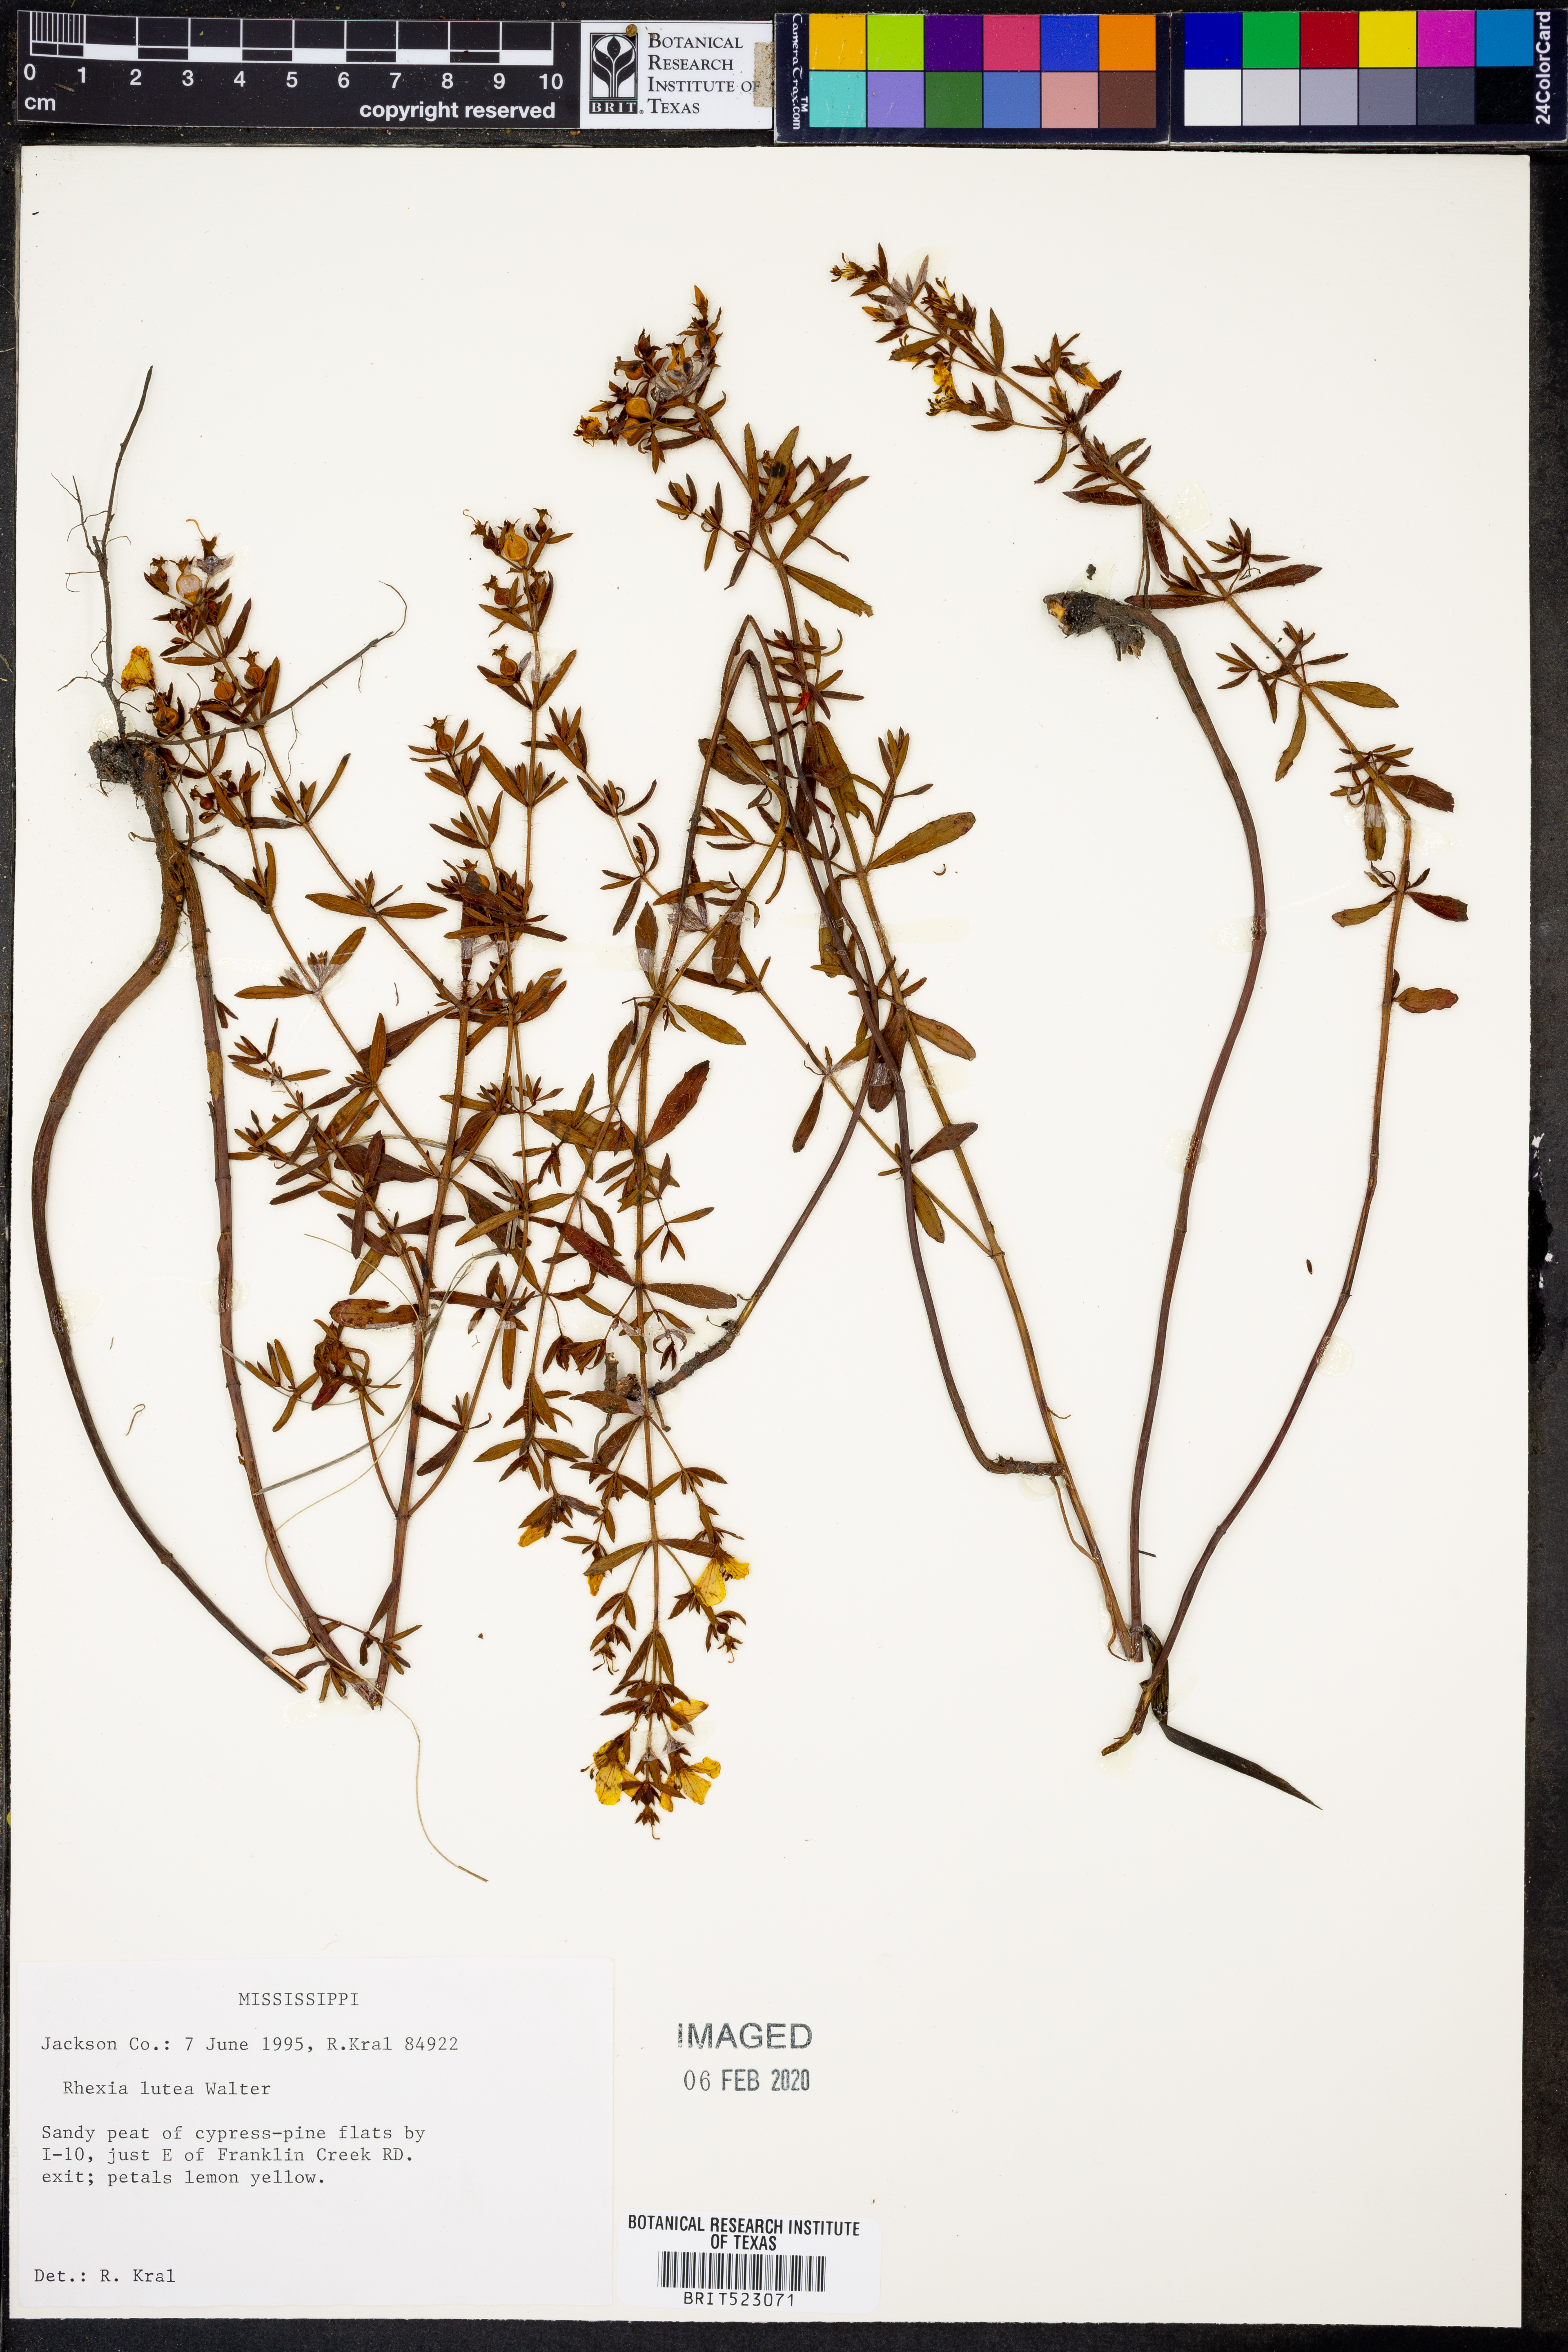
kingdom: Plantae
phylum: Tracheophyta
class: Magnoliopsida
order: Myrtales
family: Melastomataceae
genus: Rhexia
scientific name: Rhexia lutea
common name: Golden meadow-beauty
